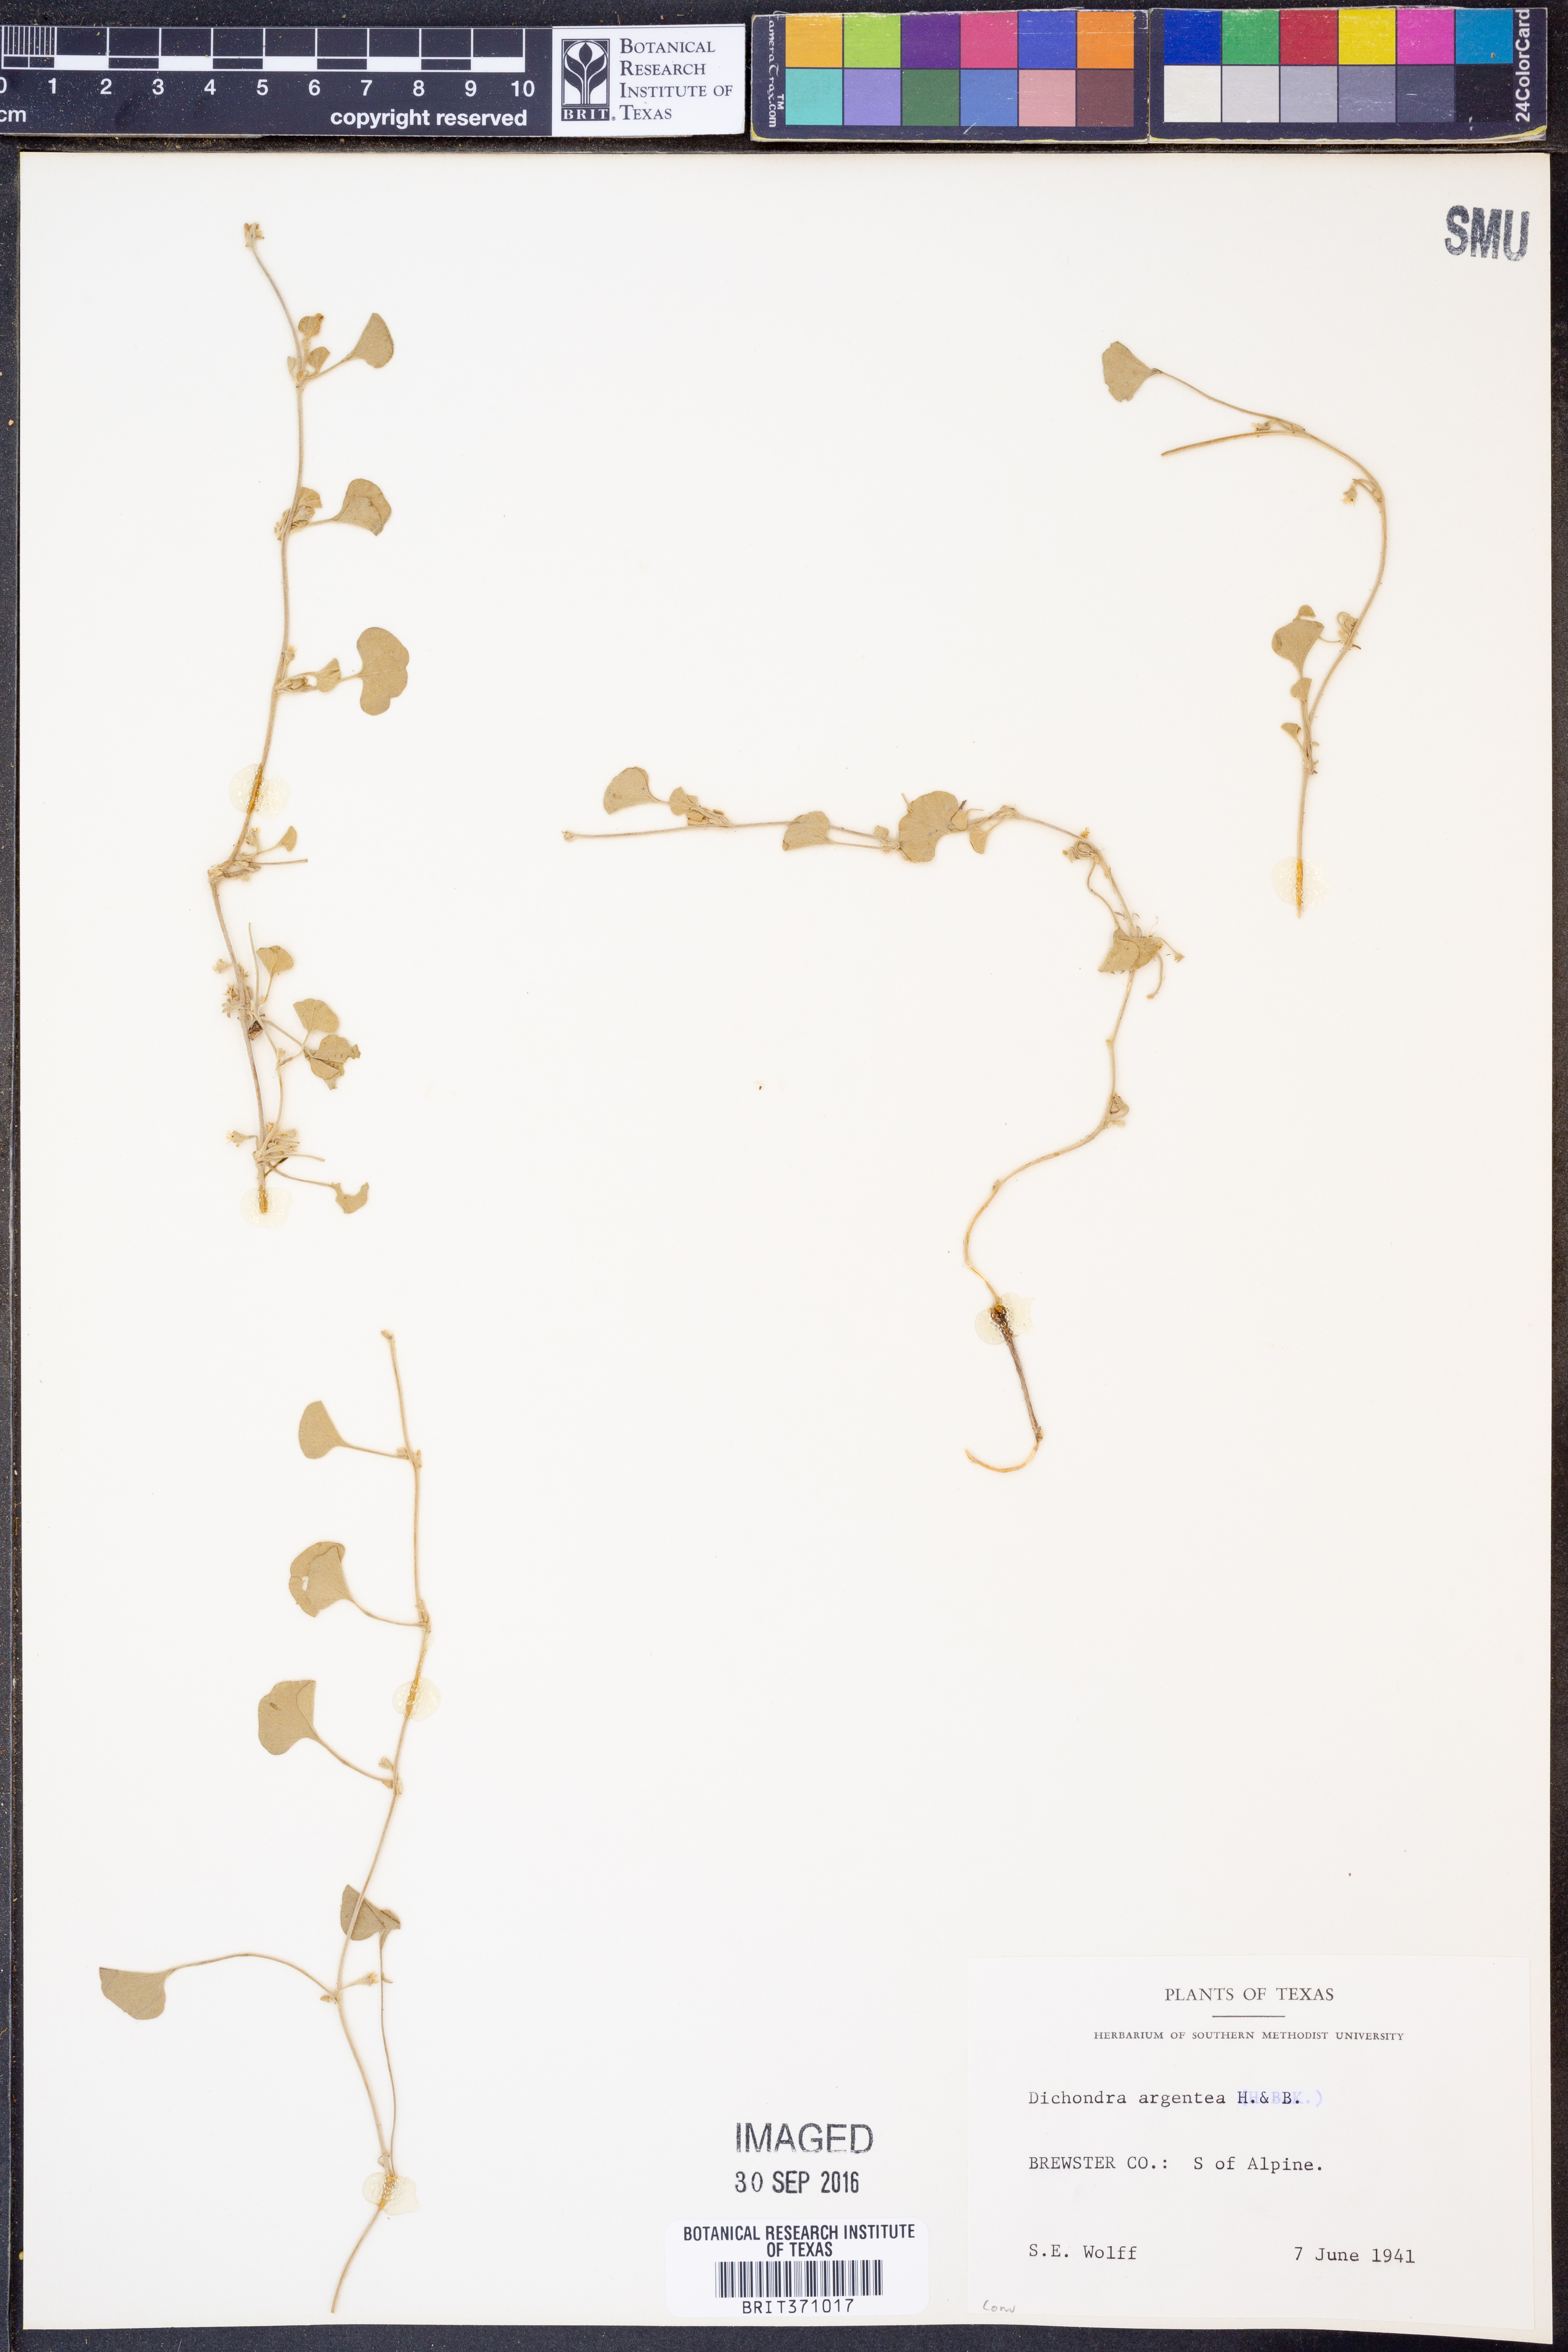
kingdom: Plantae
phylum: Tracheophyta
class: Magnoliopsida
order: Solanales
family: Convolvulaceae
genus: Dichondra
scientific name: Dichondra argentea
